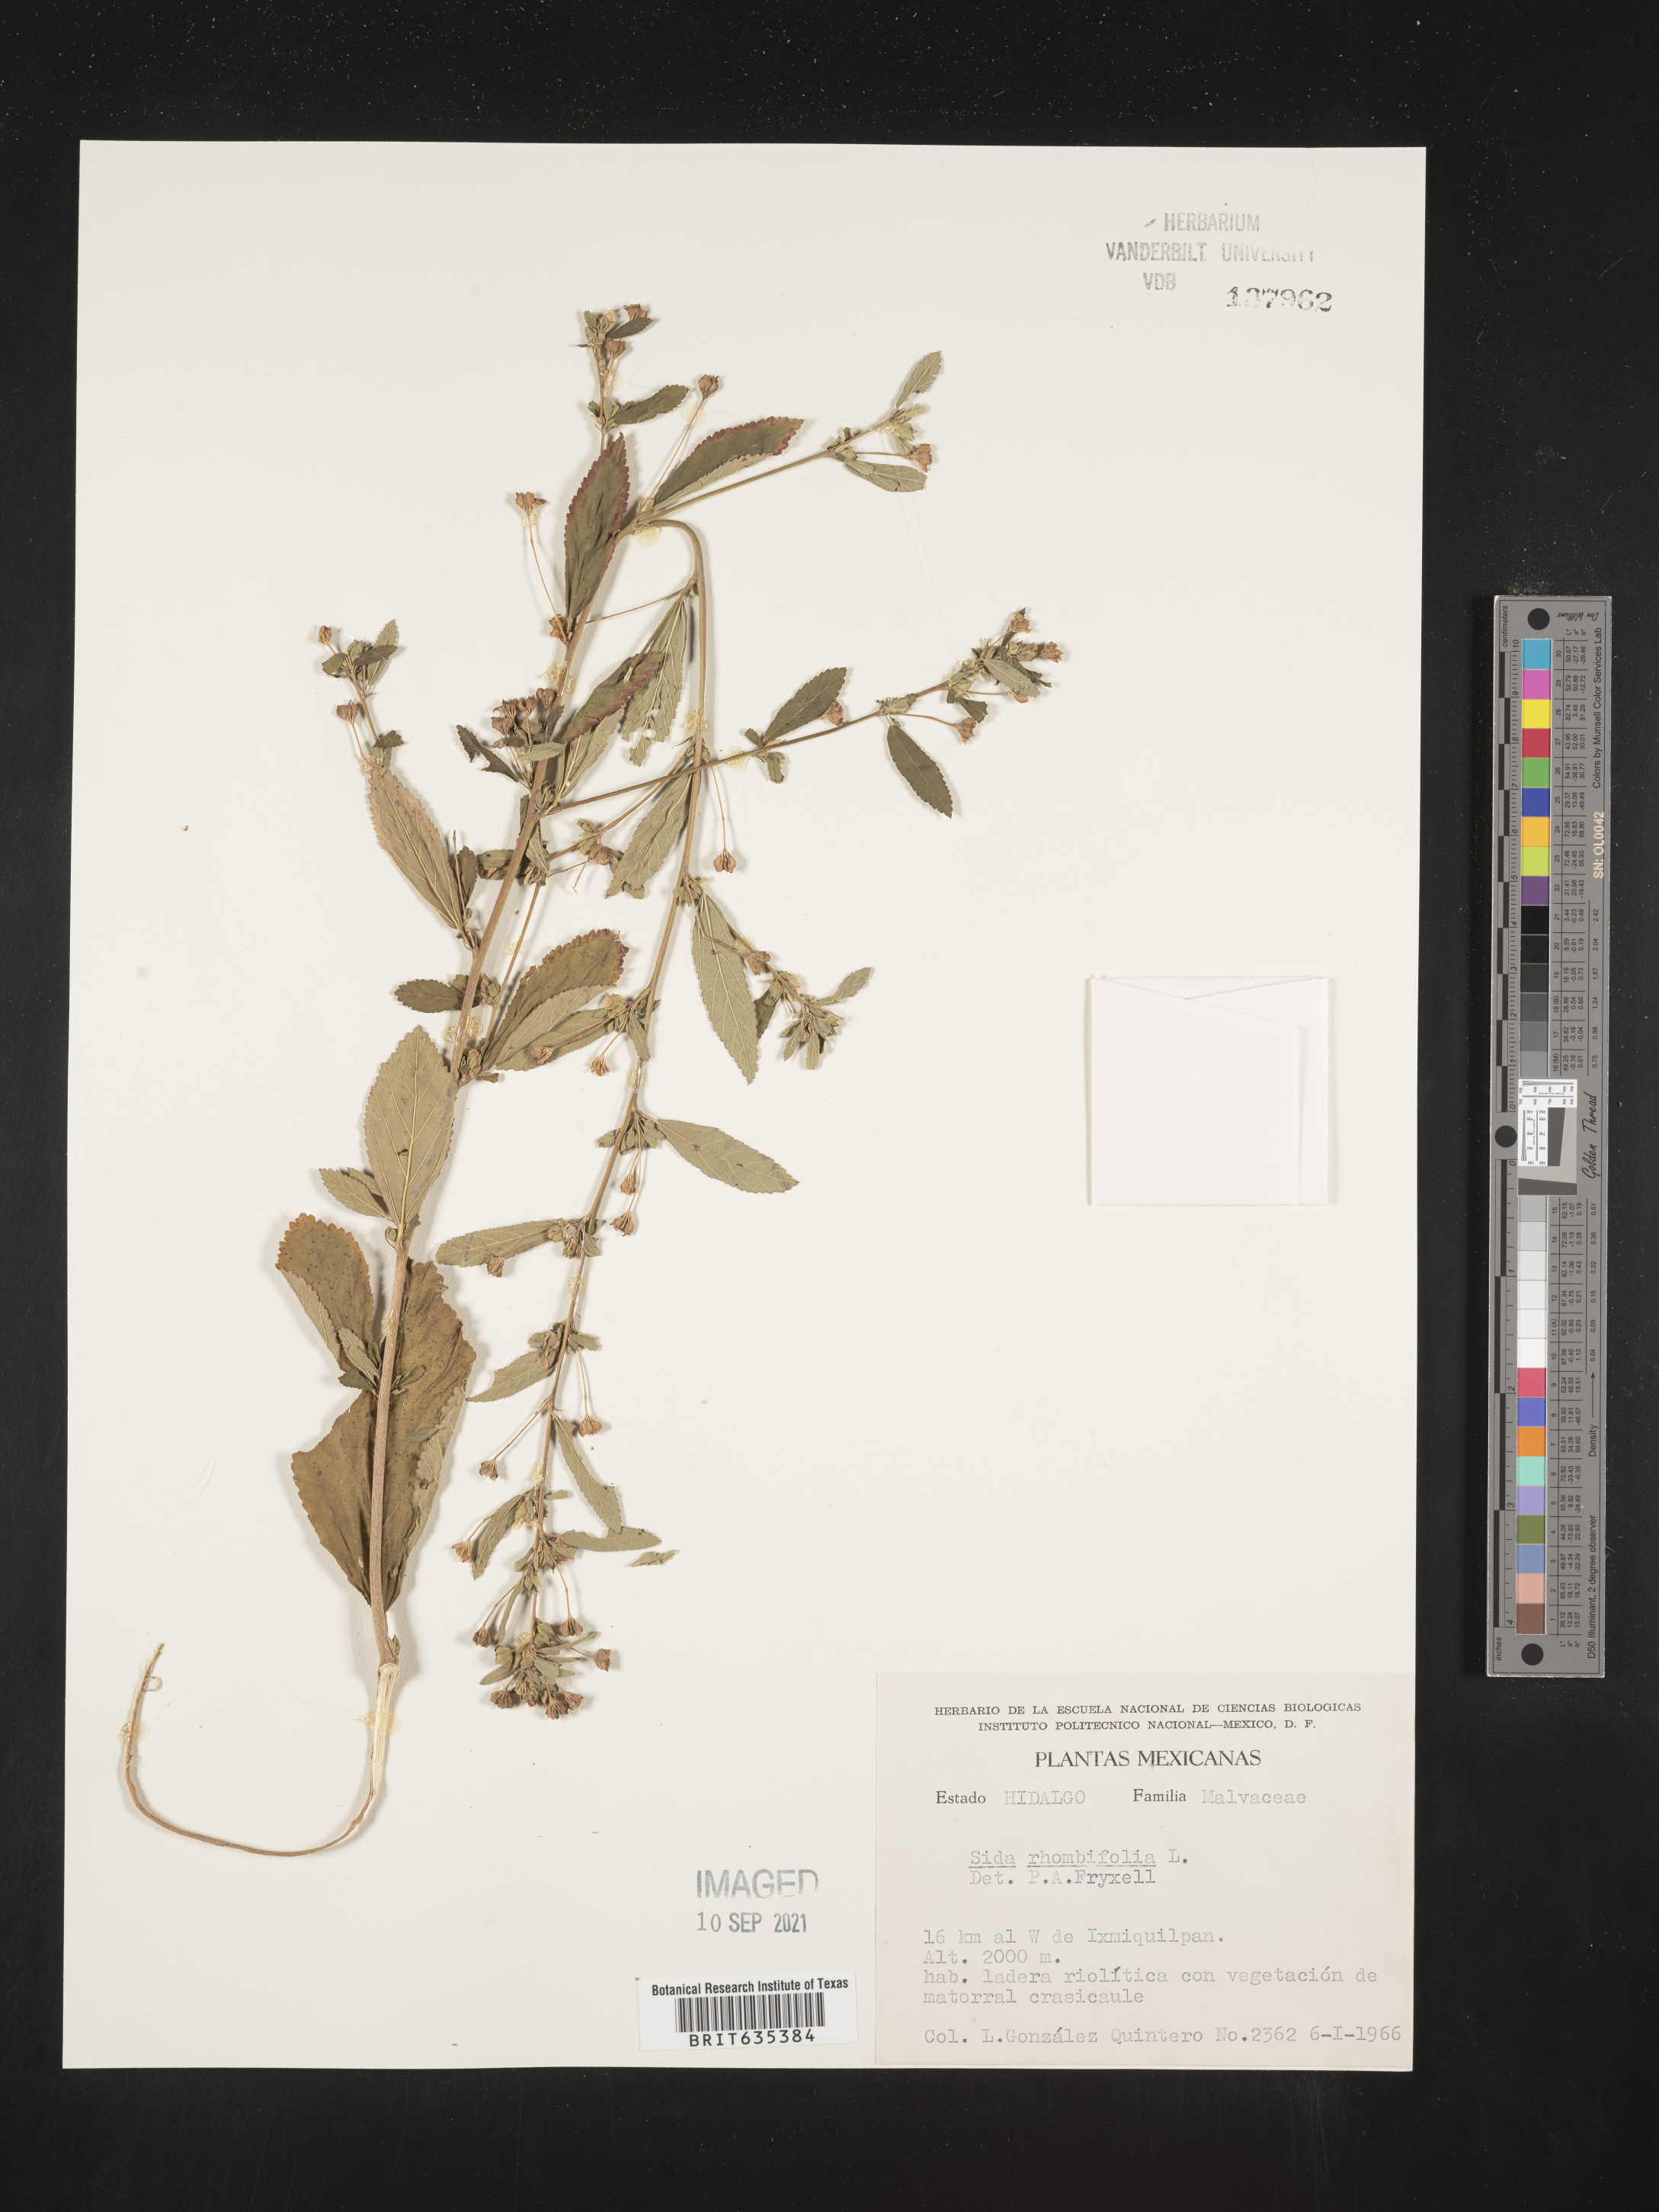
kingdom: Plantae
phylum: Tracheophyta
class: Magnoliopsida
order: Malvales
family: Malvaceae
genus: Sida
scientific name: Sida
